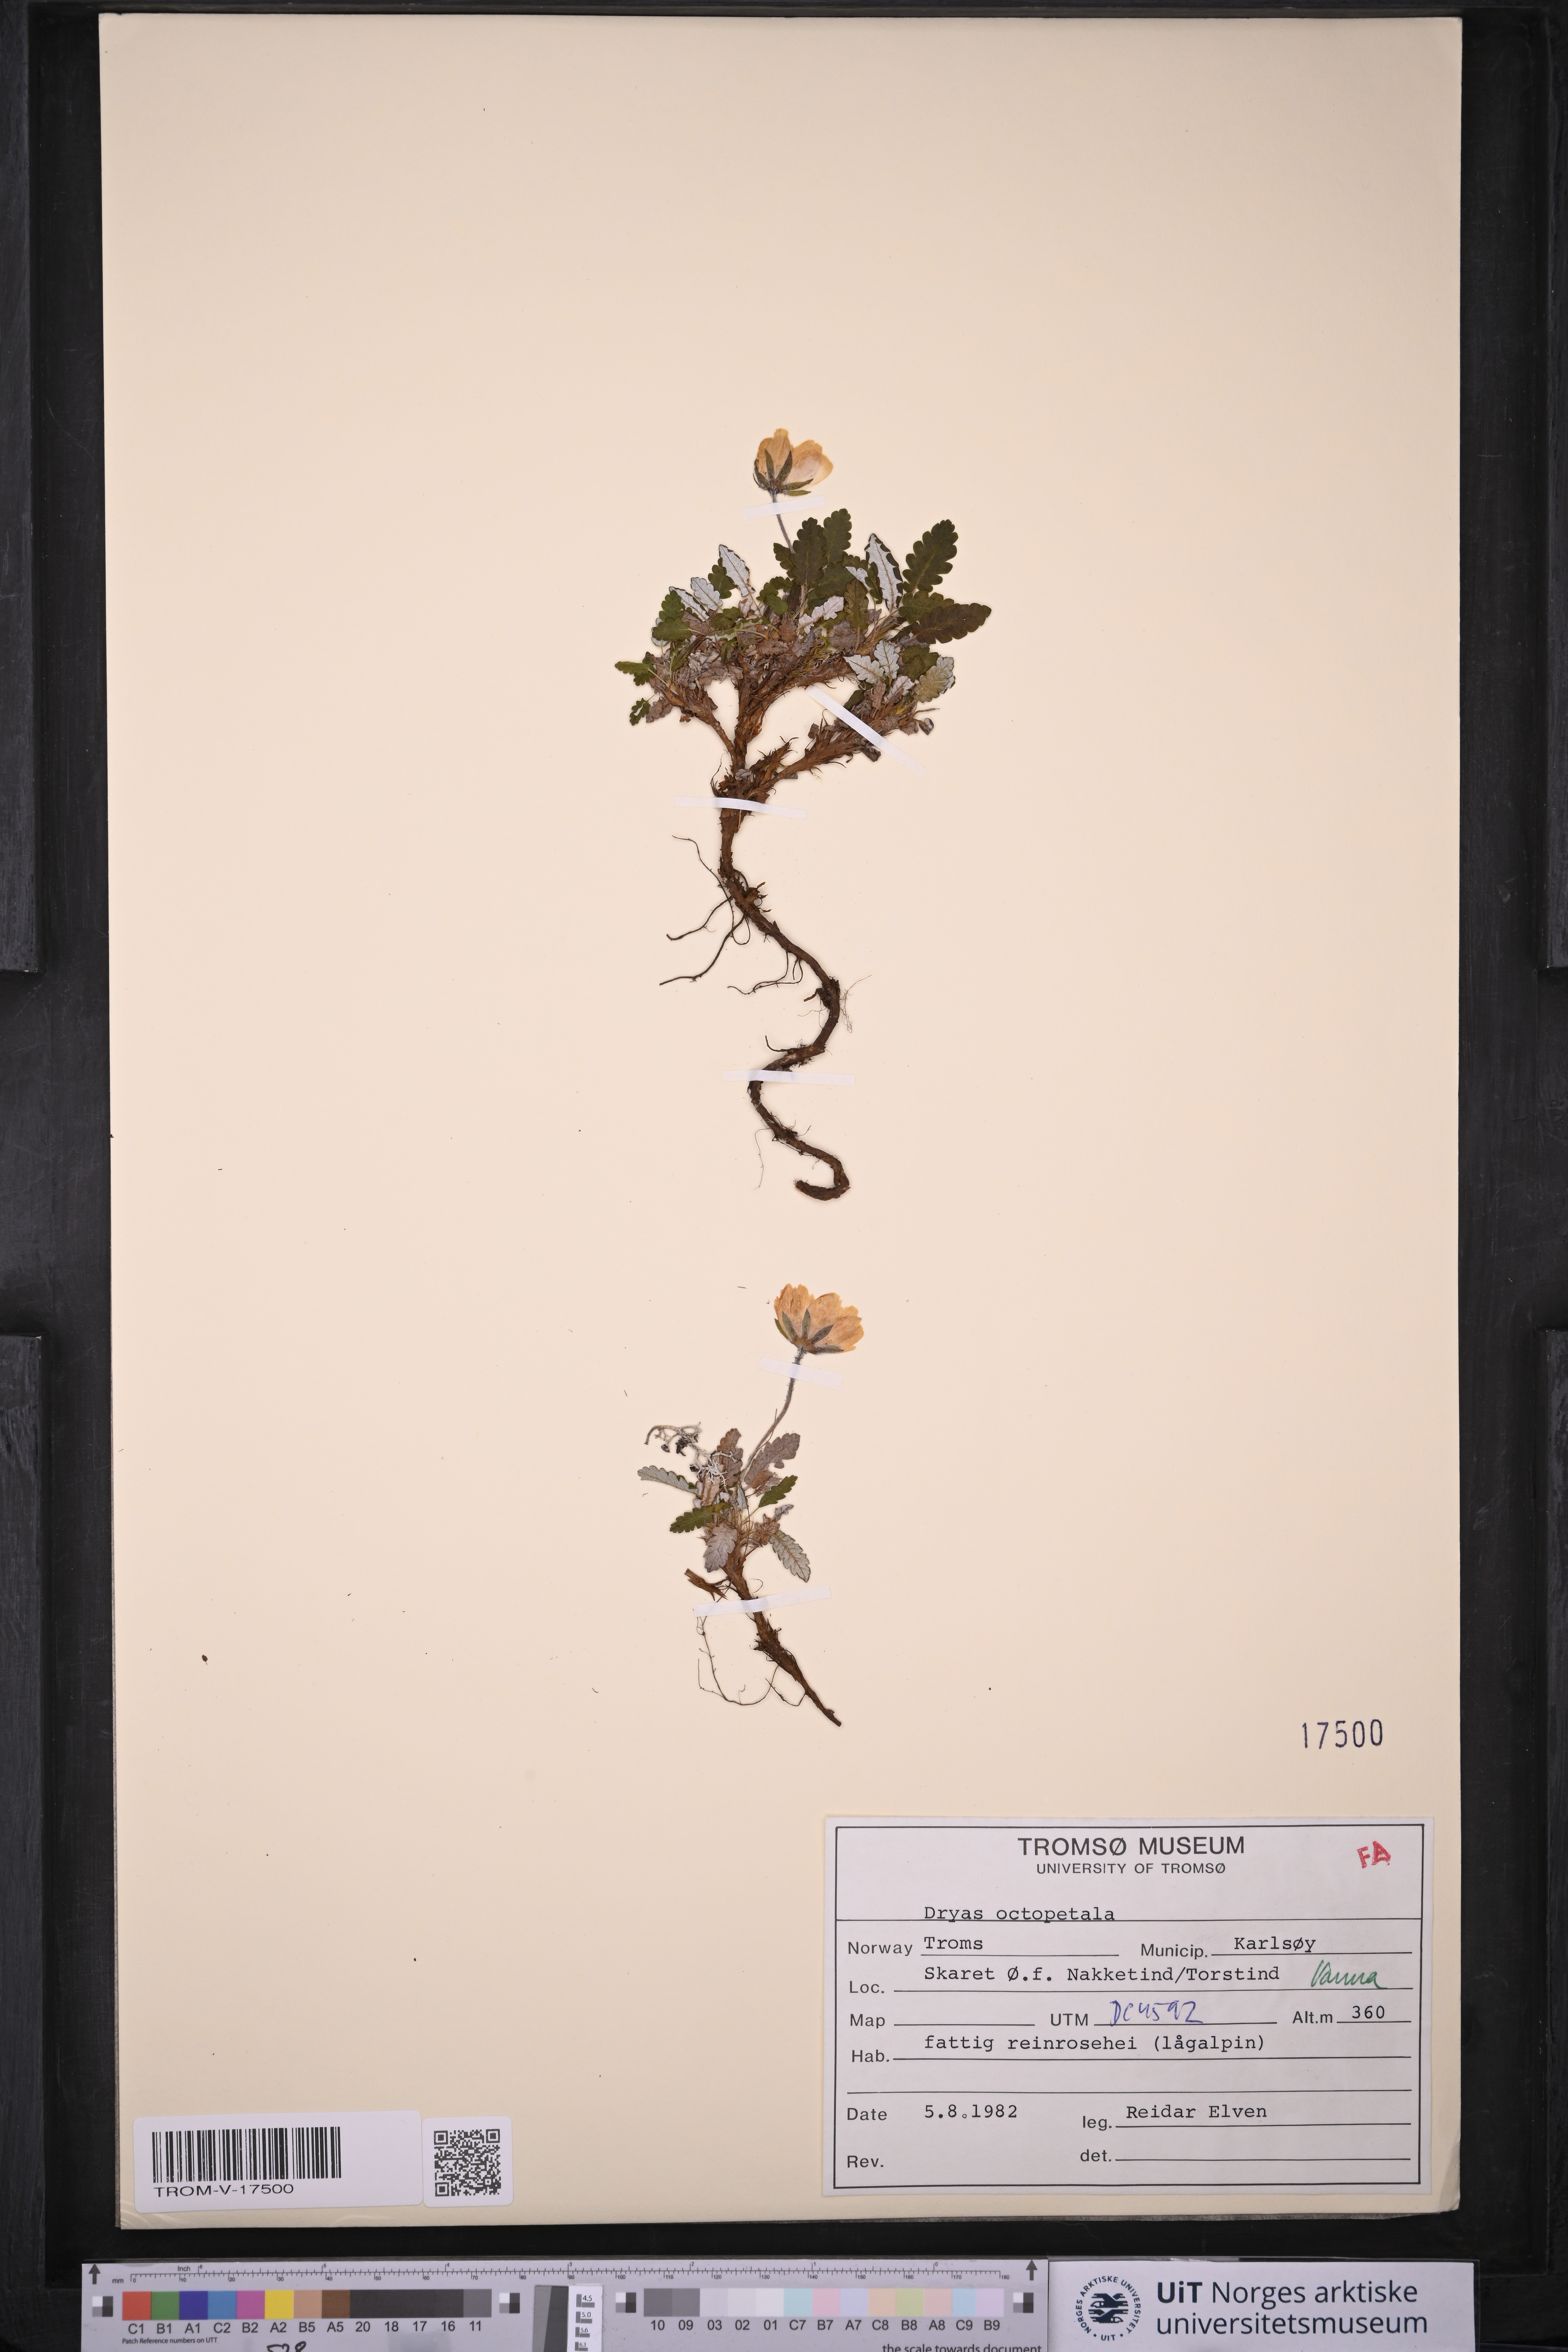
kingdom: Plantae
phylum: Tracheophyta
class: Magnoliopsida
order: Rosales
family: Rosaceae
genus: Dryas
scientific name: Dryas octopetala
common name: Eight-petal mountain-avens
